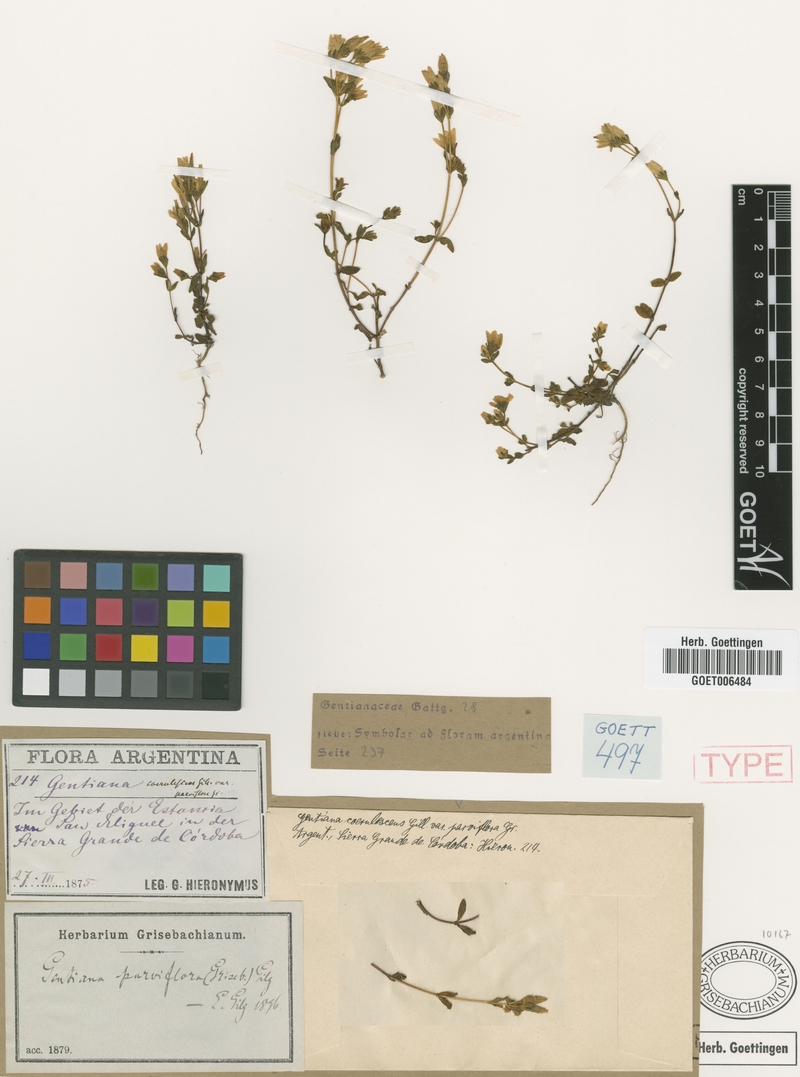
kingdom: Plantae
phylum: Tracheophyta
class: Magnoliopsida
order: Gentianales
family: Gentianaceae
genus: Gentianella
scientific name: Gentianella parviflora
